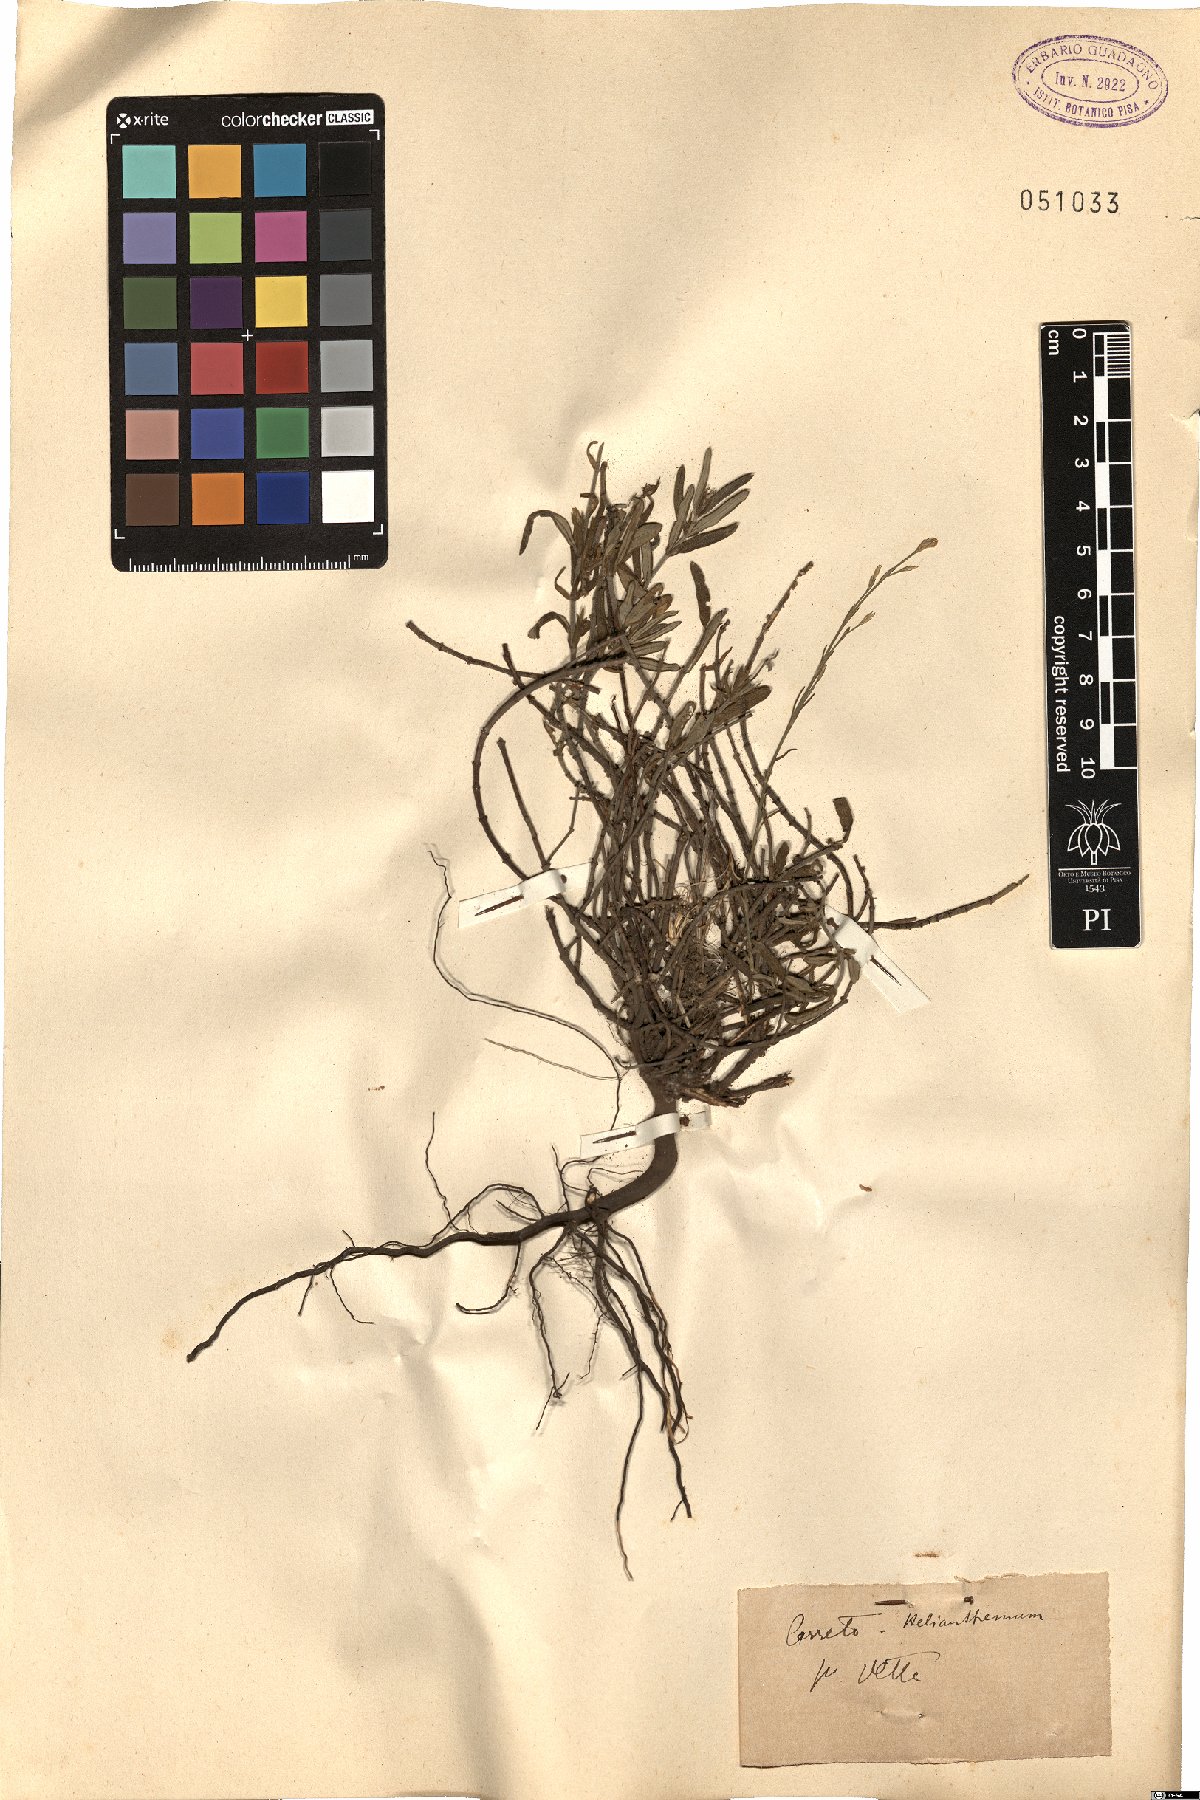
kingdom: Plantae
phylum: Tracheophyta
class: Magnoliopsida
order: Malvales
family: Cistaceae
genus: Helianthemum
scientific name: Helianthemum
